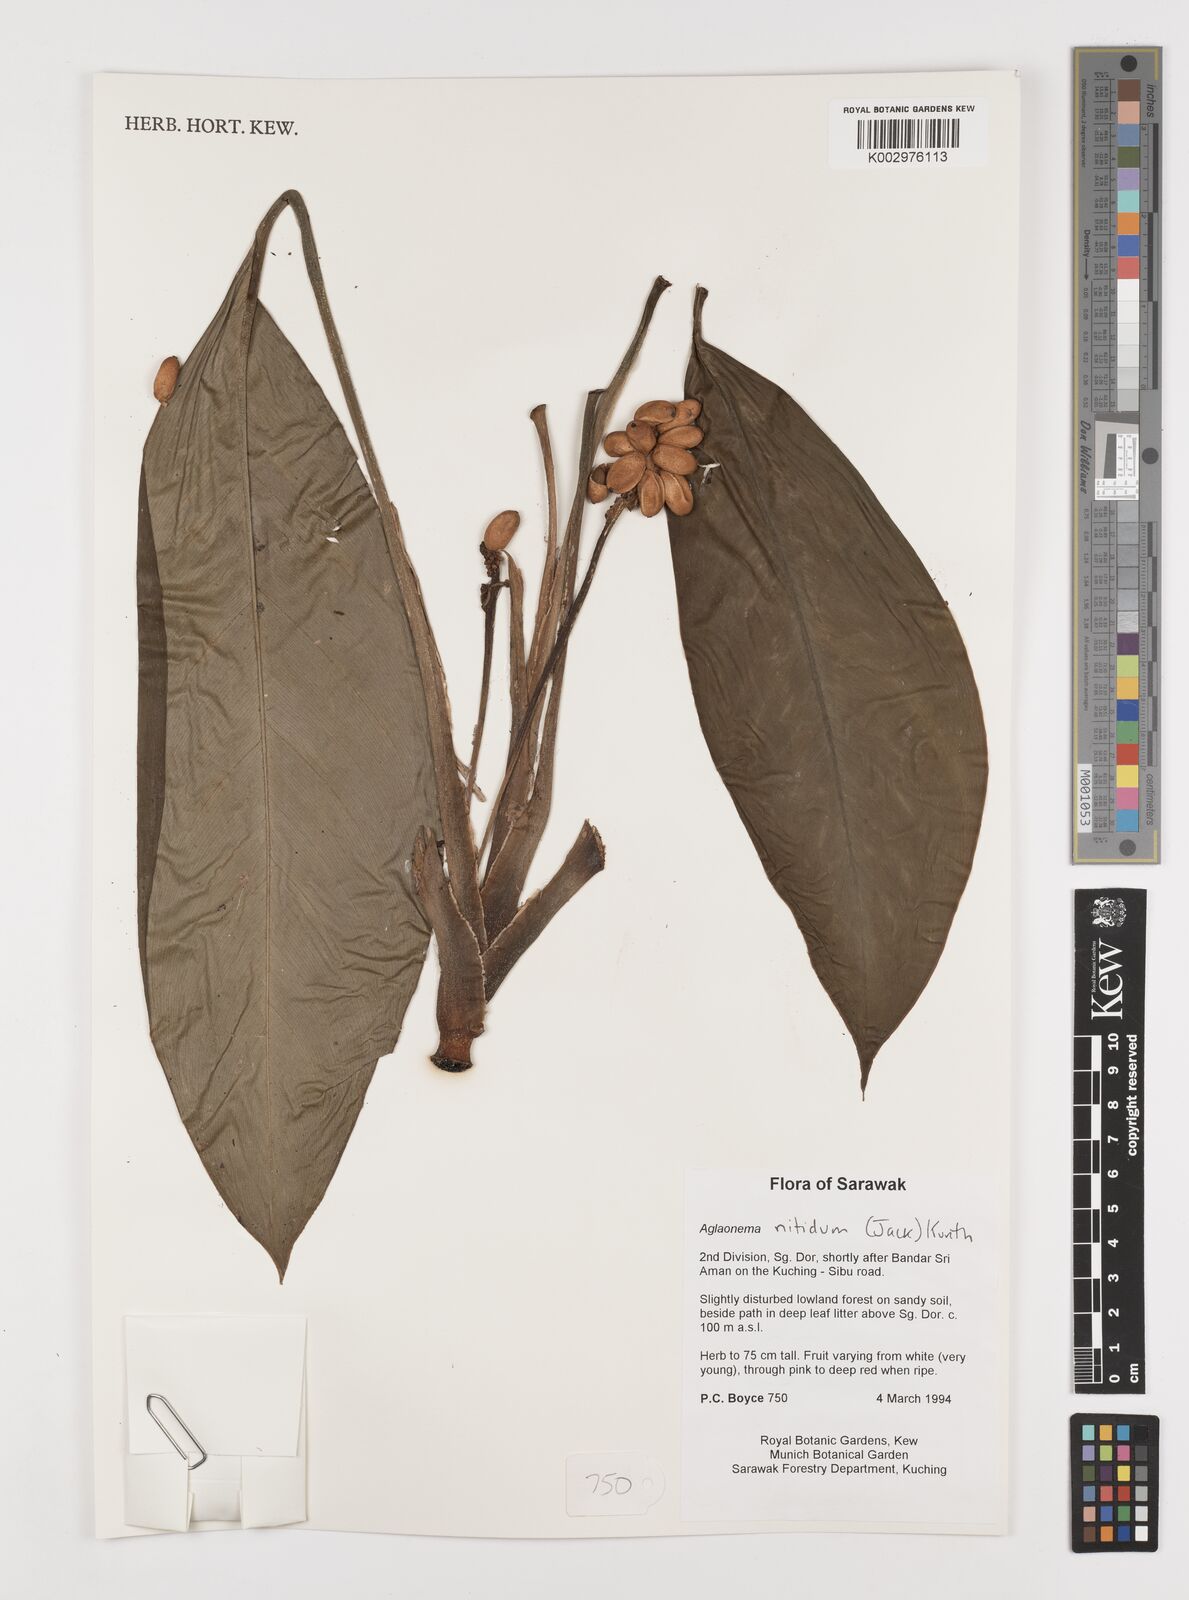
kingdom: Plantae
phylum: Tracheophyta
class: Liliopsida
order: Alismatales
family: Araceae
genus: Aglaonema
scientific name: Aglaonema nitidum
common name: Aglaonema aroid
